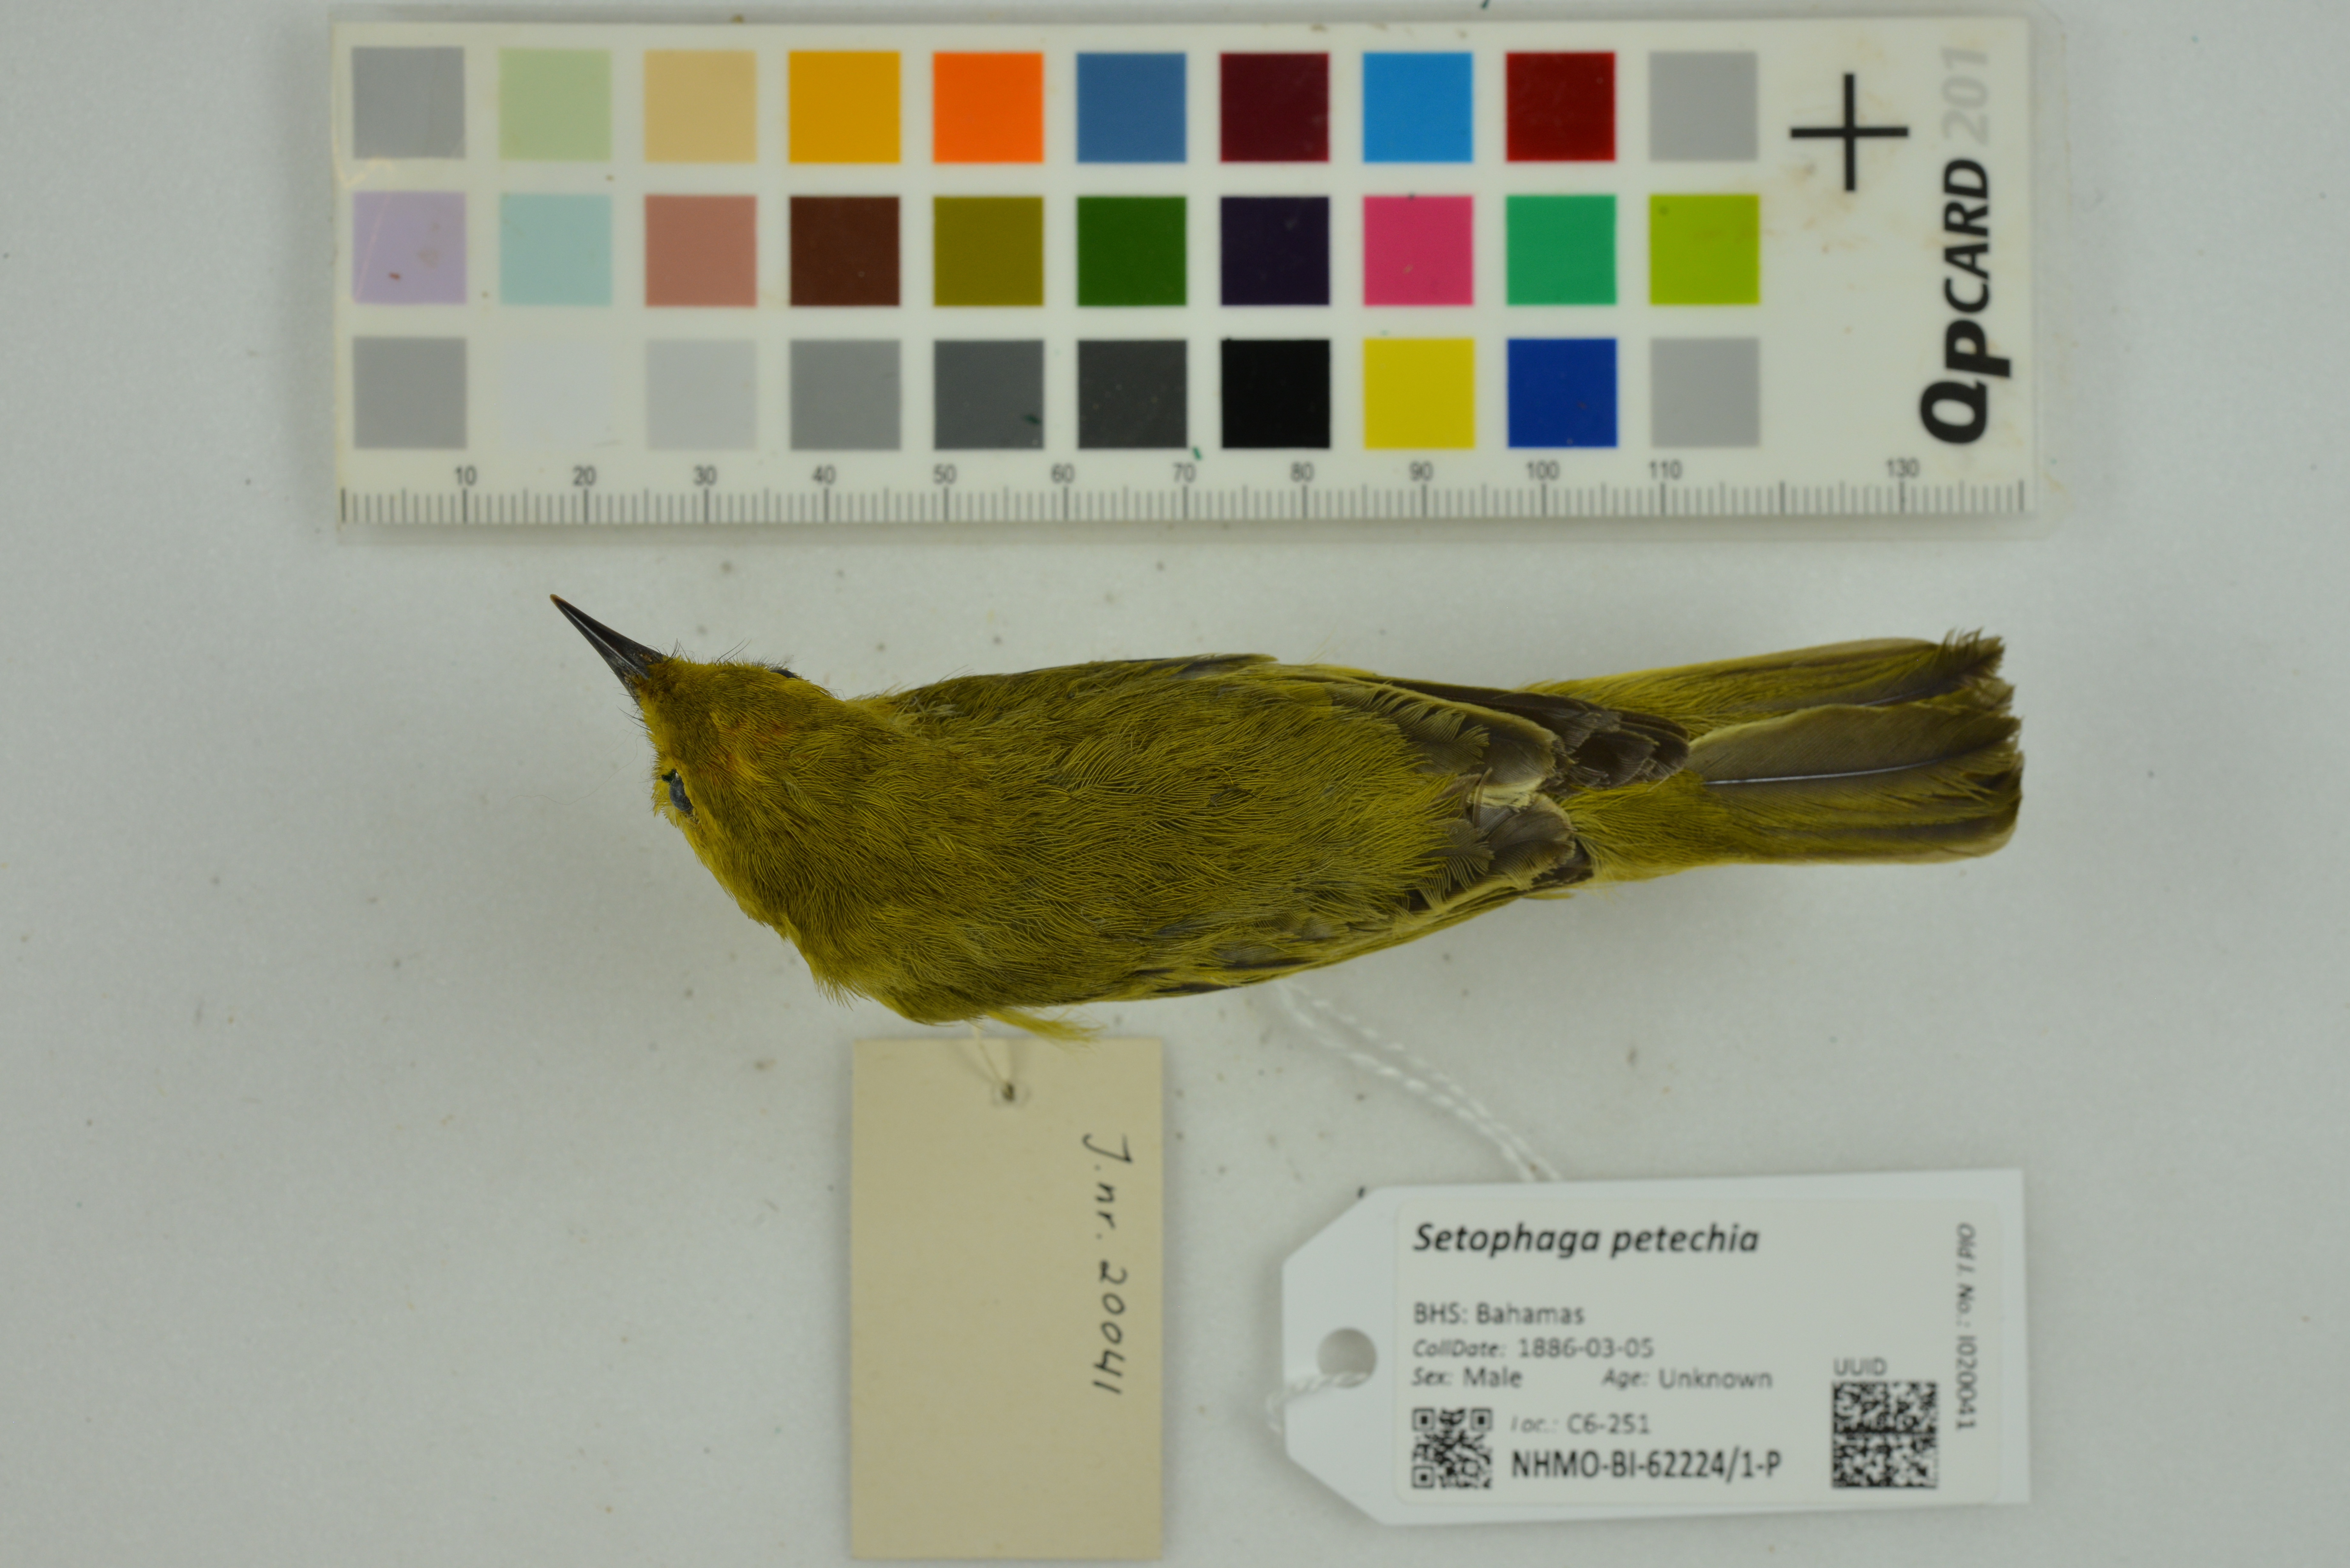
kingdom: Animalia
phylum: Chordata
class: Aves
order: Passeriformes
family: Parulidae
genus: Setophaga
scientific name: Setophaga petechia
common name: Yellow warbler
